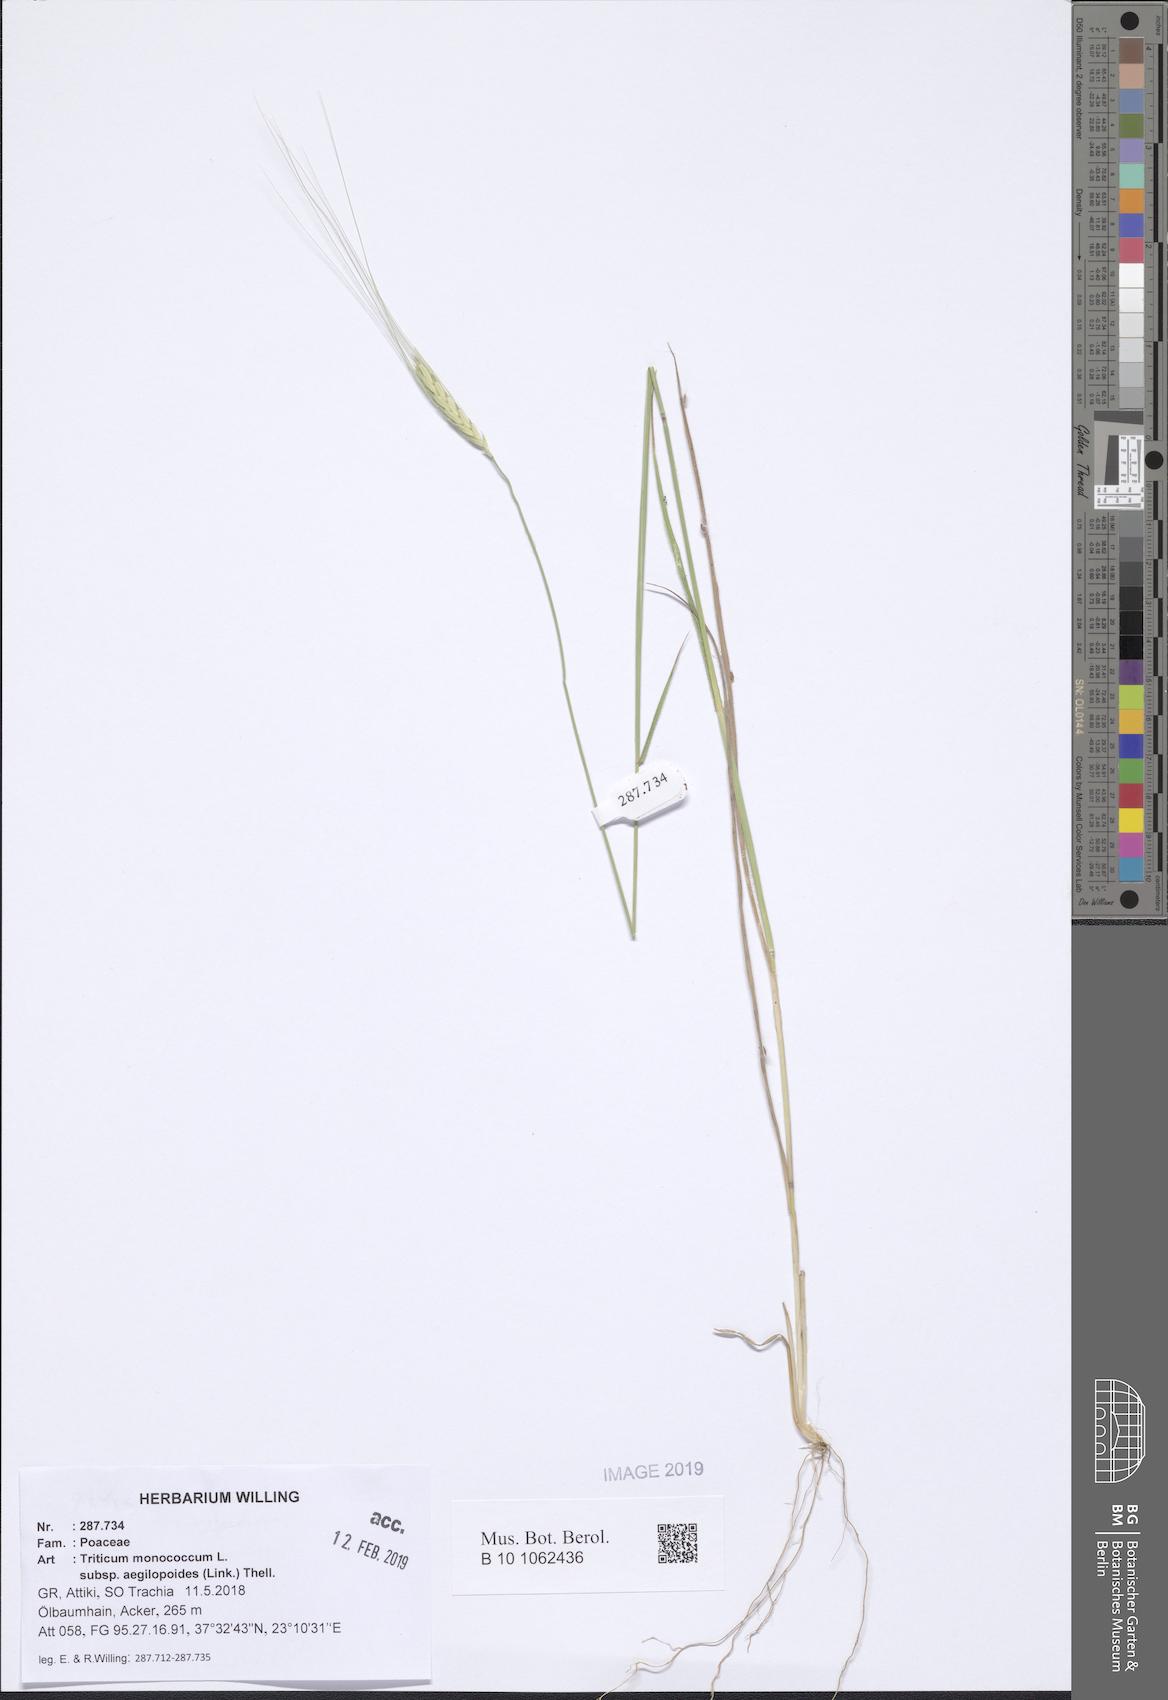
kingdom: Plantae
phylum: Tracheophyta
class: Liliopsida
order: Poales
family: Poaceae
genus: Triticum
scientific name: Triticum monococcum
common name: Einkorn
